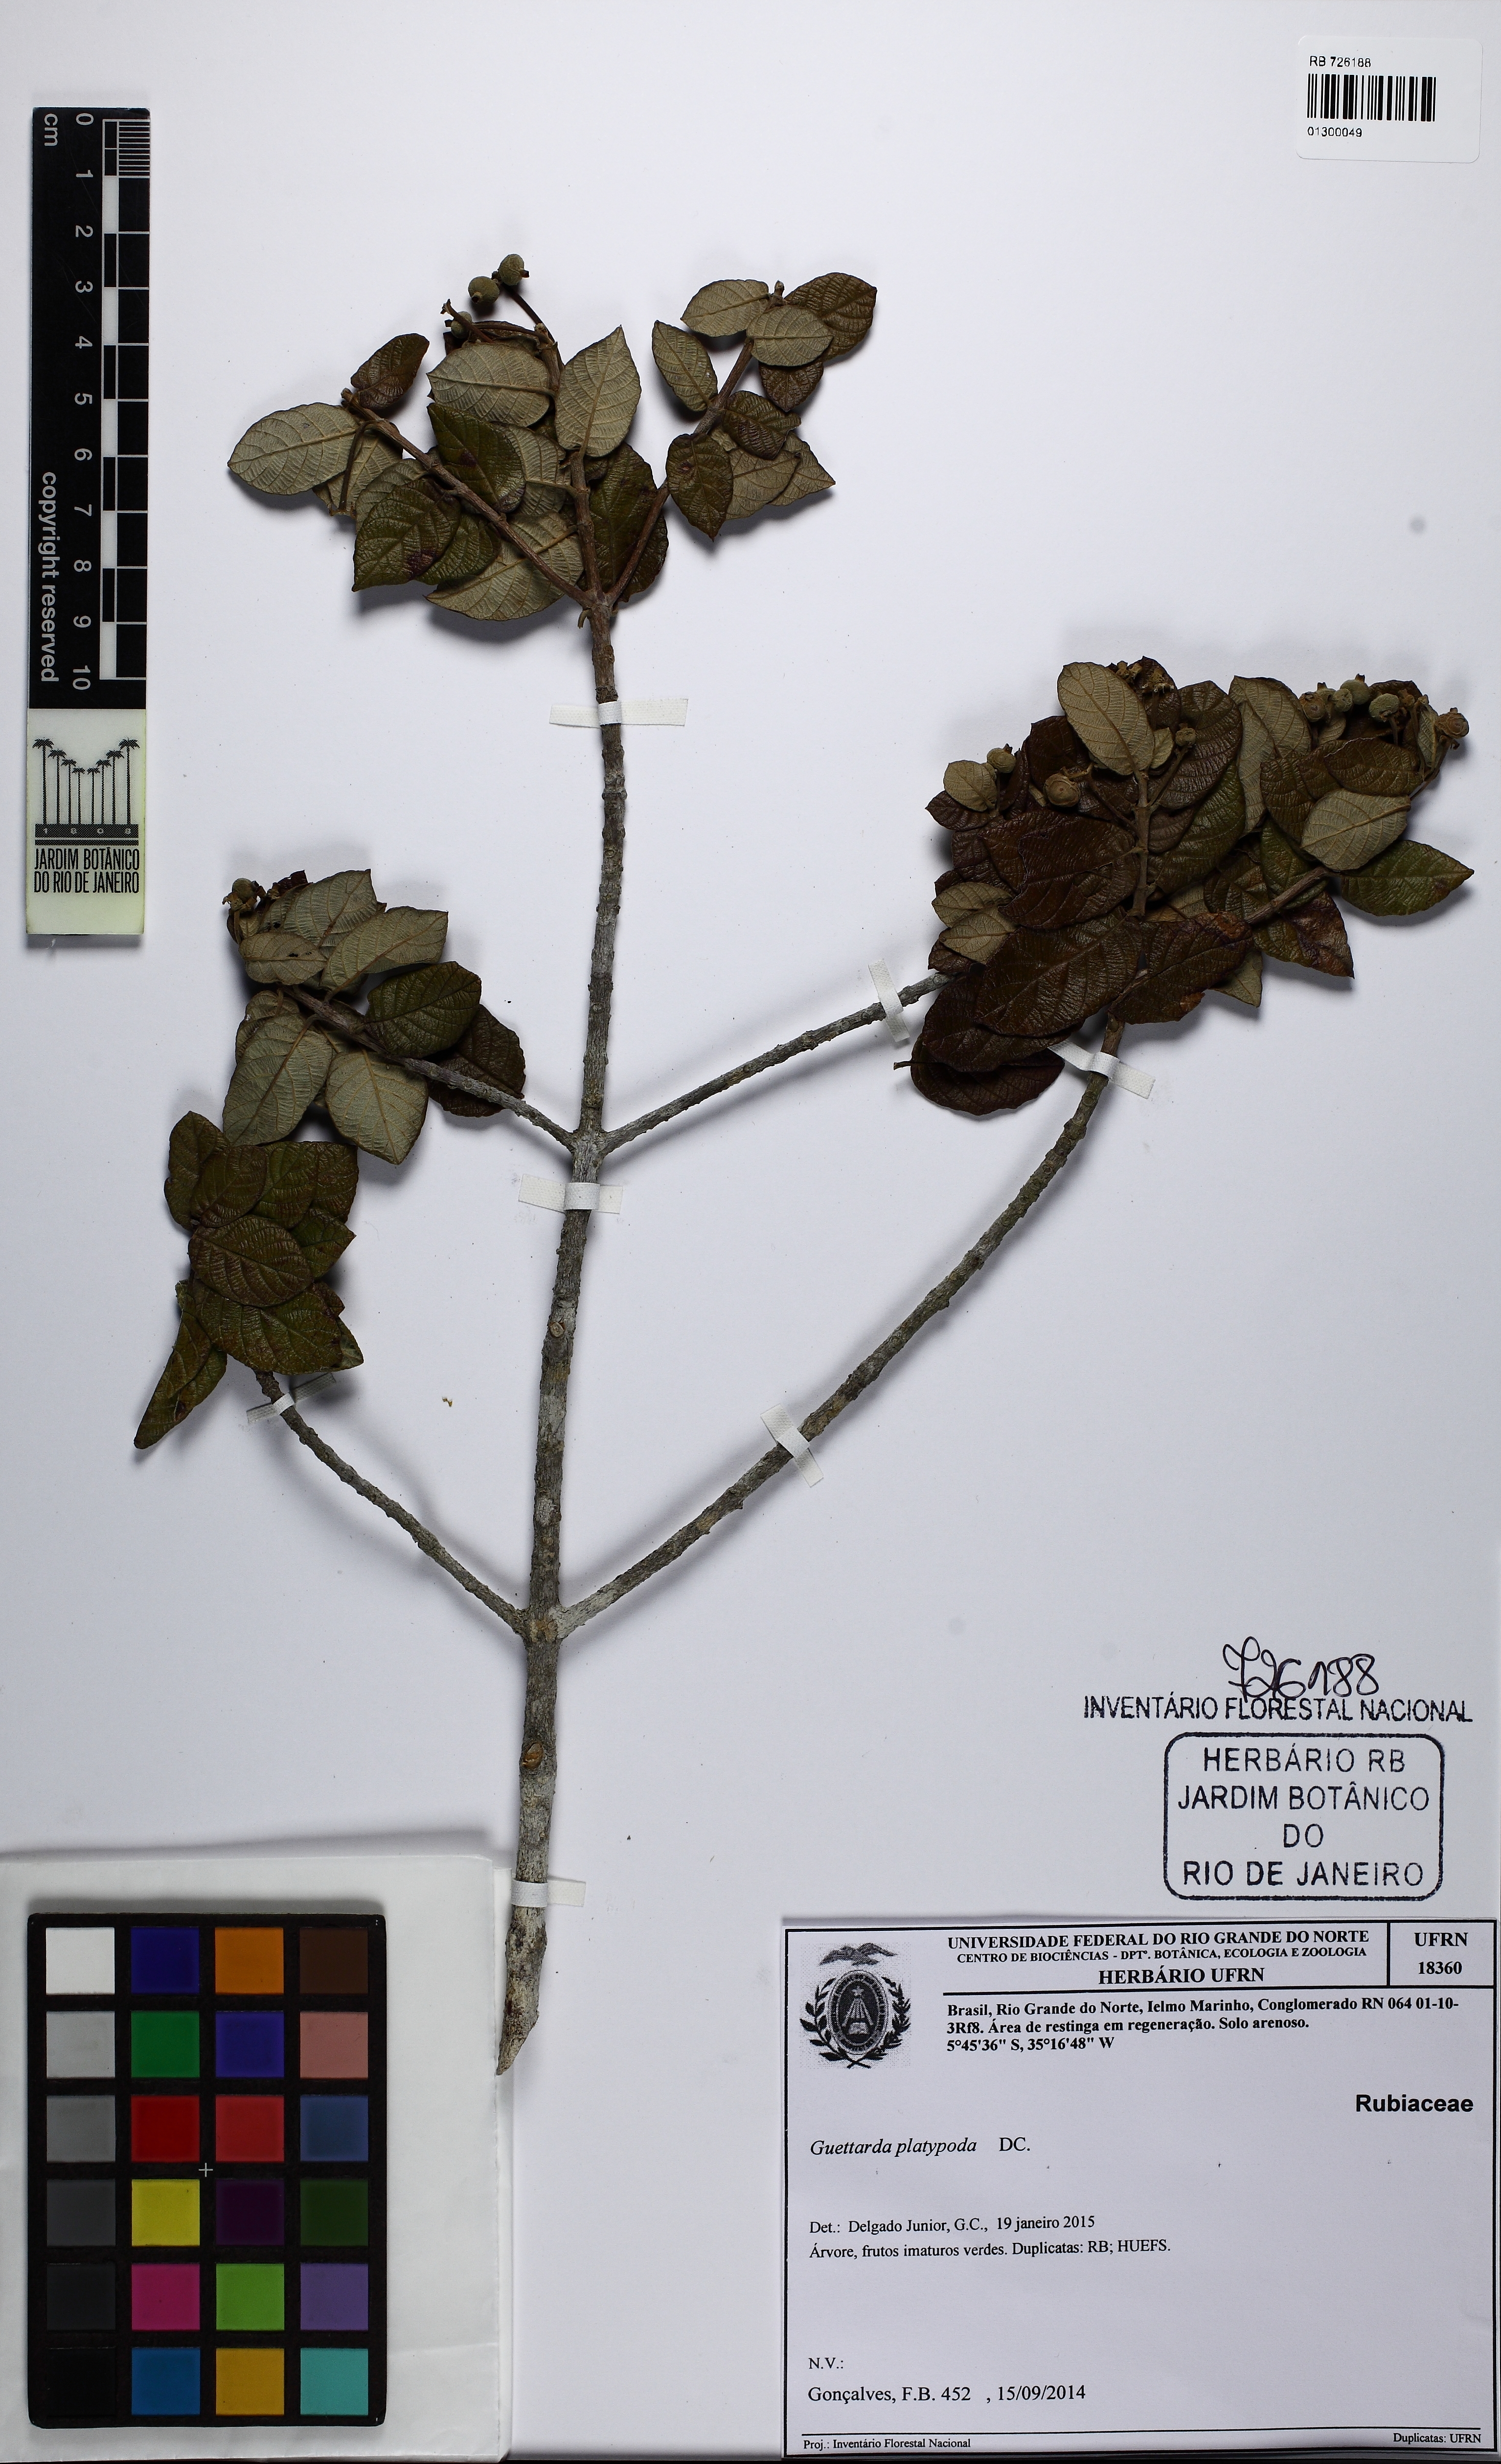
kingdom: Plantae
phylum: Tracheophyta
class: Magnoliopsida
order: Gentianales
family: Rubiaceae
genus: Guettarda
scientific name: Guettarda platypoda
